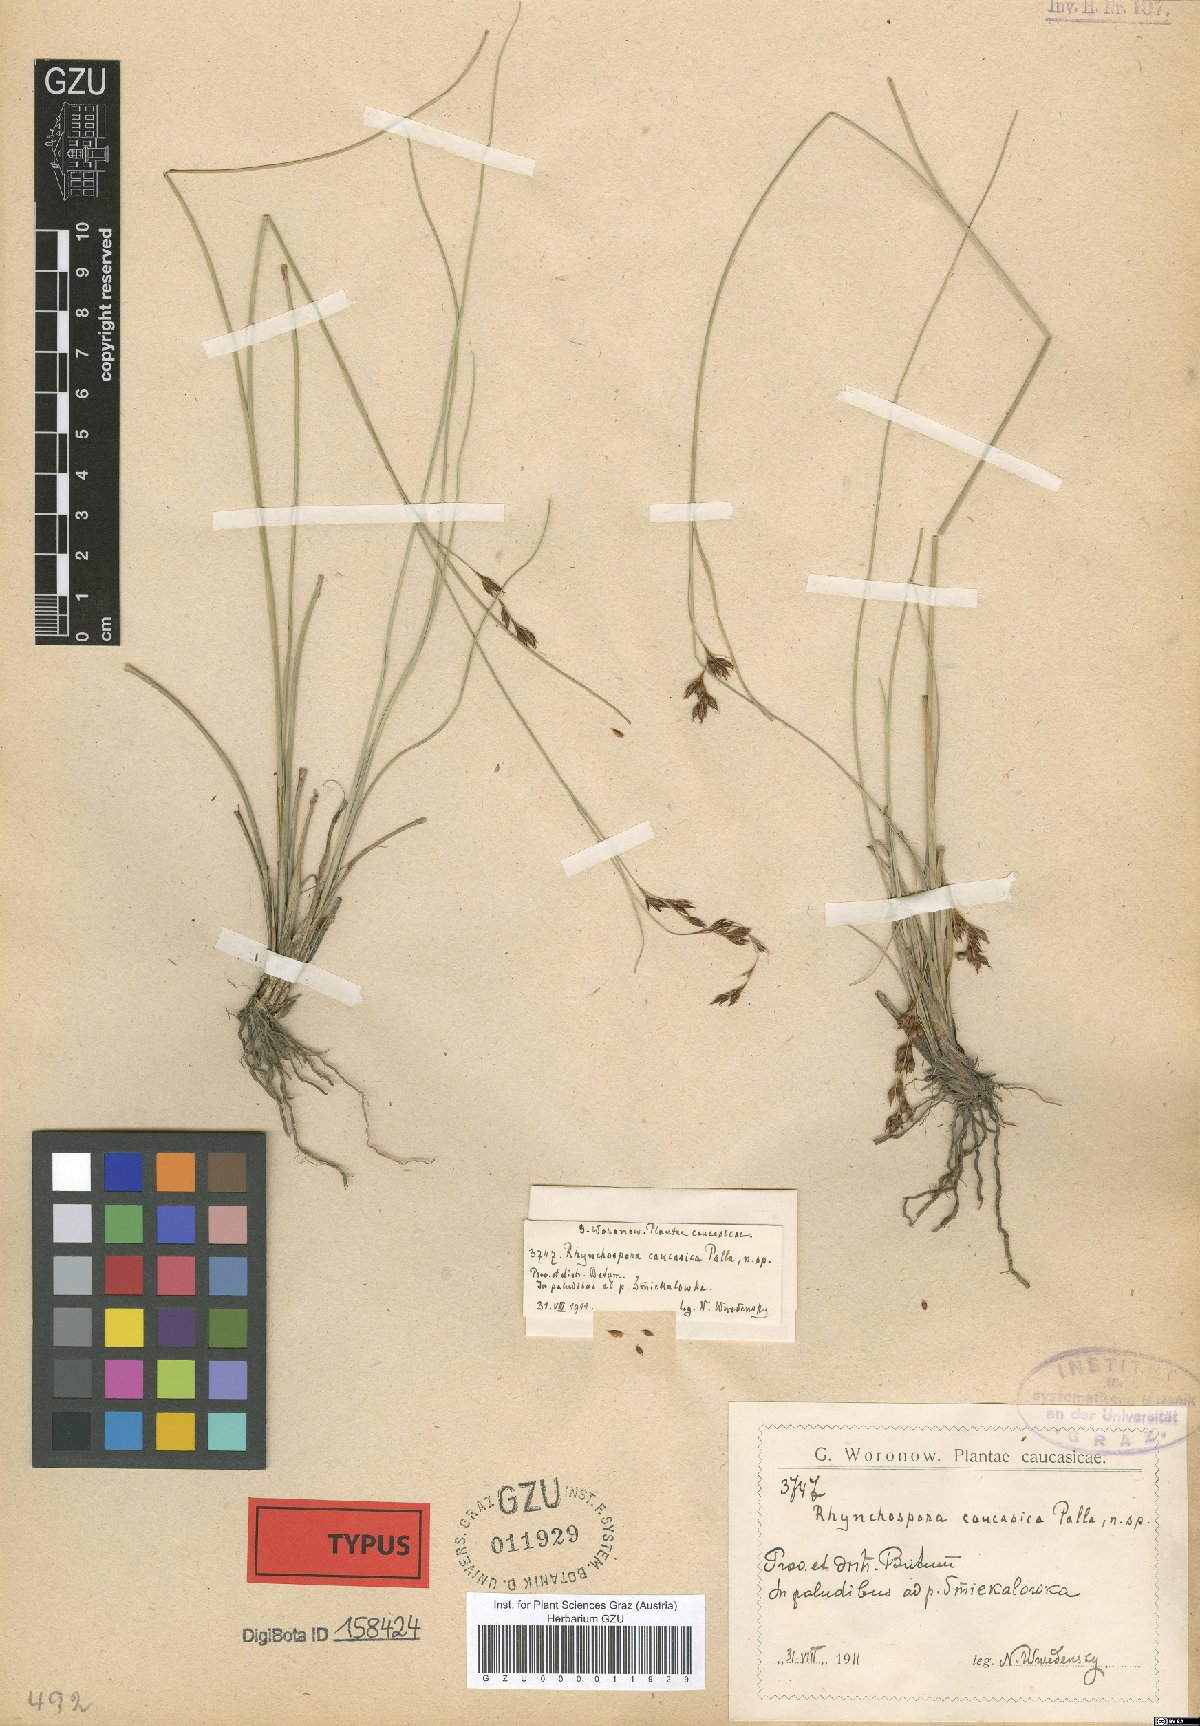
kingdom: Plantae
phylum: Tracheophyta
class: Liliopsida
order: Poales
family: Cyperaceae
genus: Rhynchospora
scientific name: Rhynchospora caucasica
